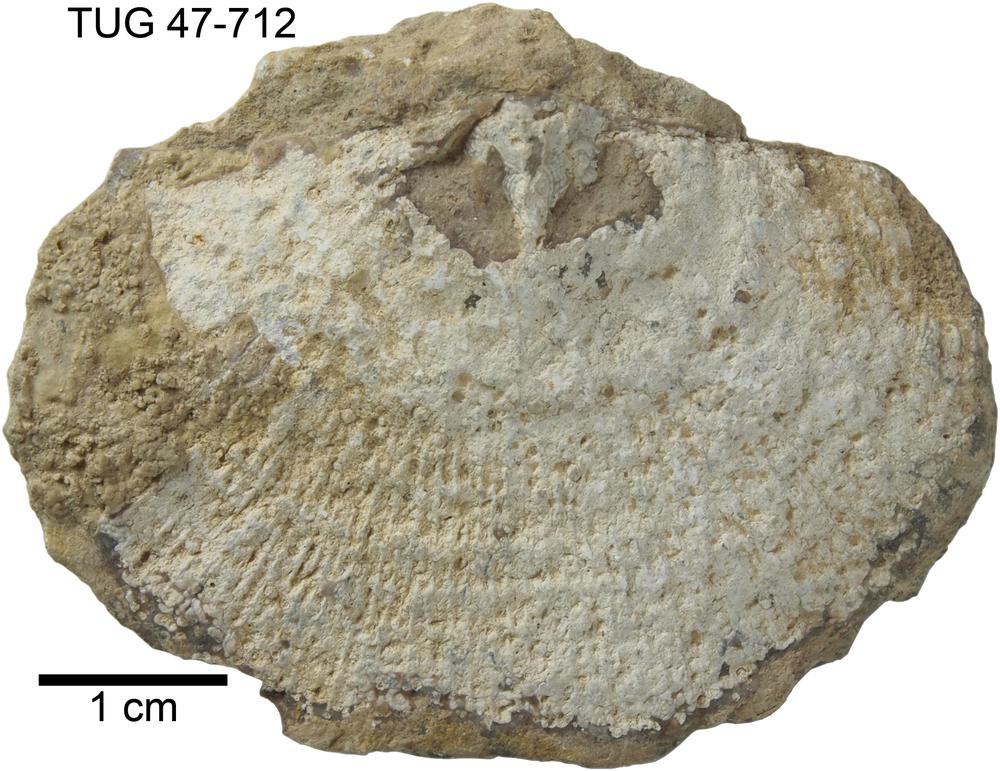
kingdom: Animalia
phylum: Brachiopoda
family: Gonambonitidae
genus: Estlandia
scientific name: Estlandia pyron
